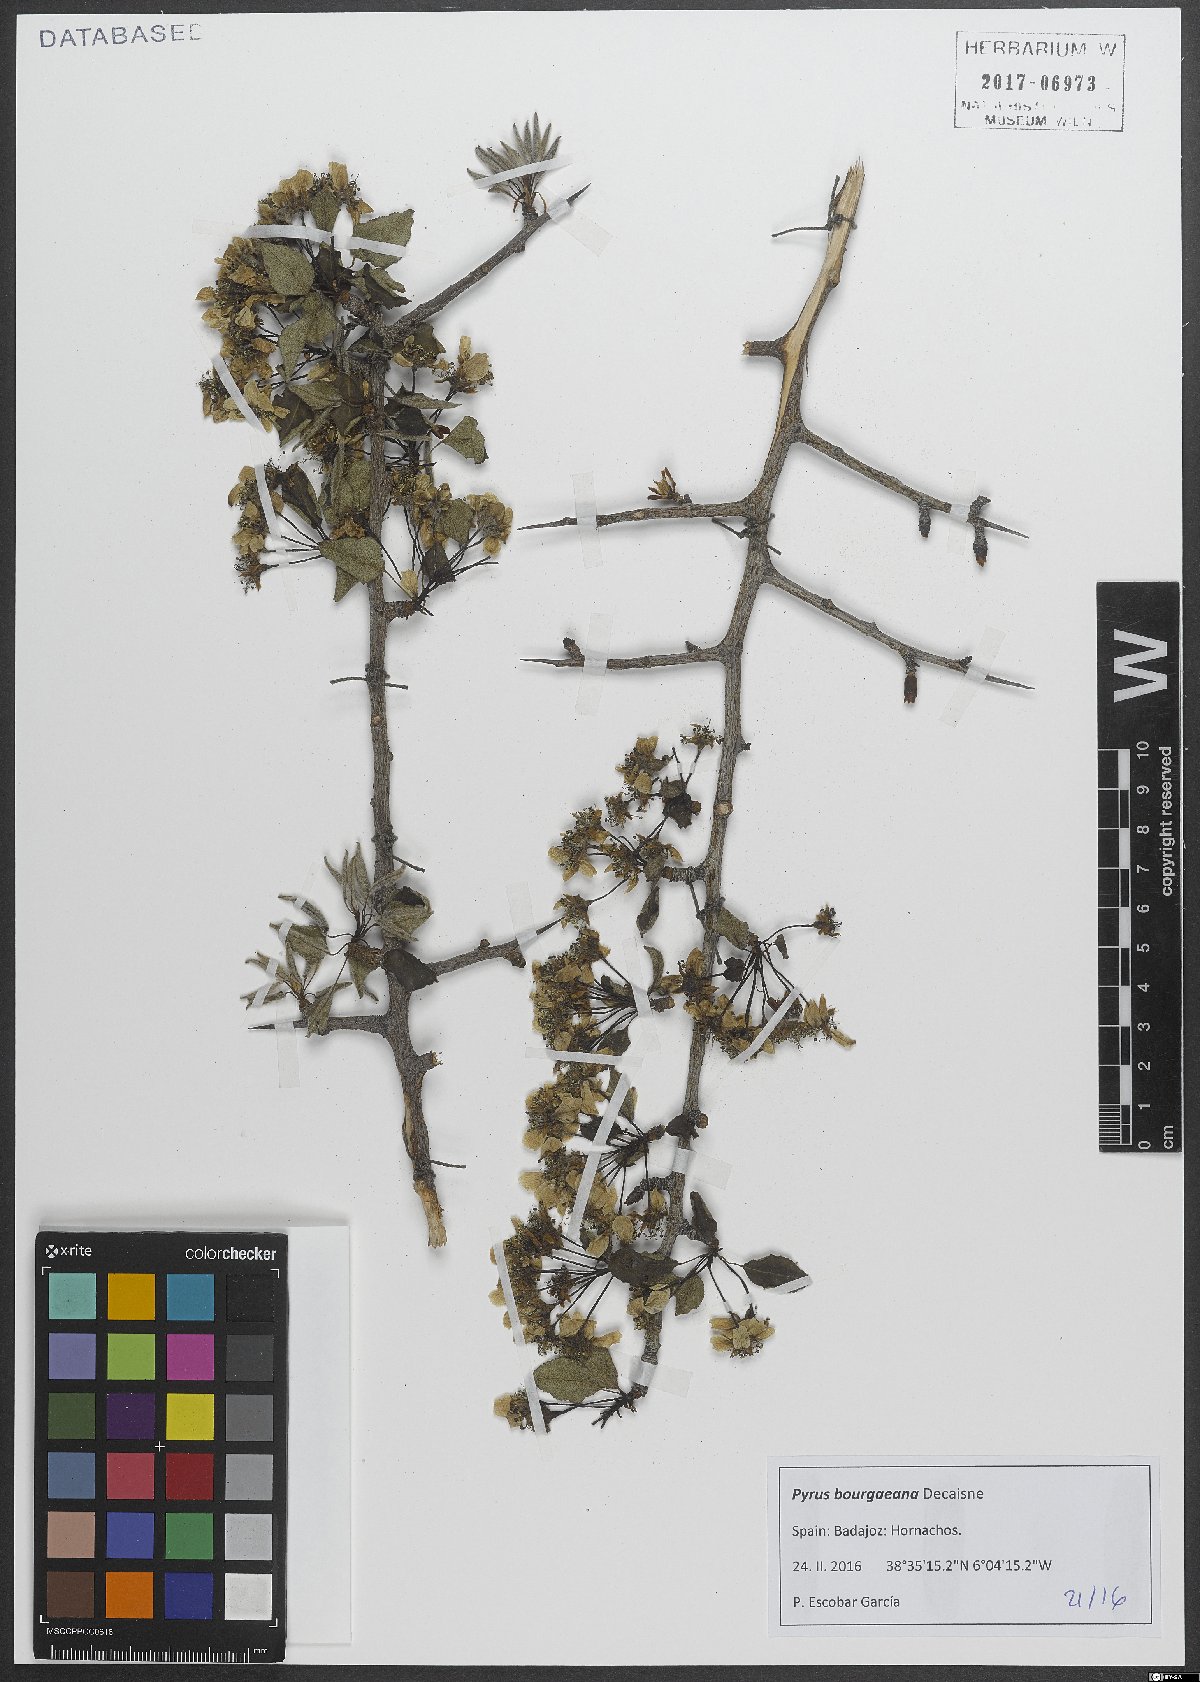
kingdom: Plantae
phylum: Tracheophyta
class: Magnoliopsida
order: Rosales
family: Rosaceae
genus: Pyrus
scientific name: Pyrus bourgaeana
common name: Iberian pear
